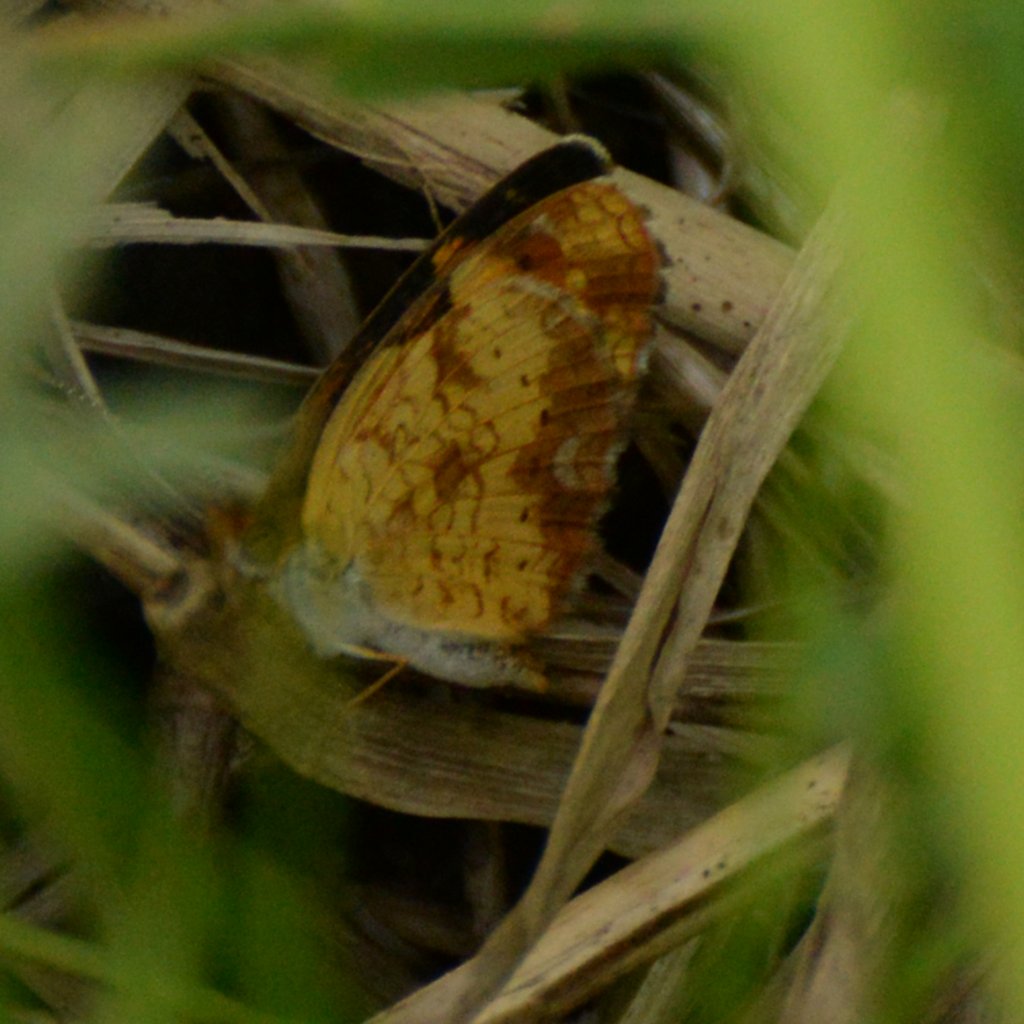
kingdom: Animalia
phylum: Arthropoda
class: Insecta
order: Lepidoptera
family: Nymphalidae
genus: Phyciodes
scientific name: Phyciodes tharos
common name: Northern Crescent
